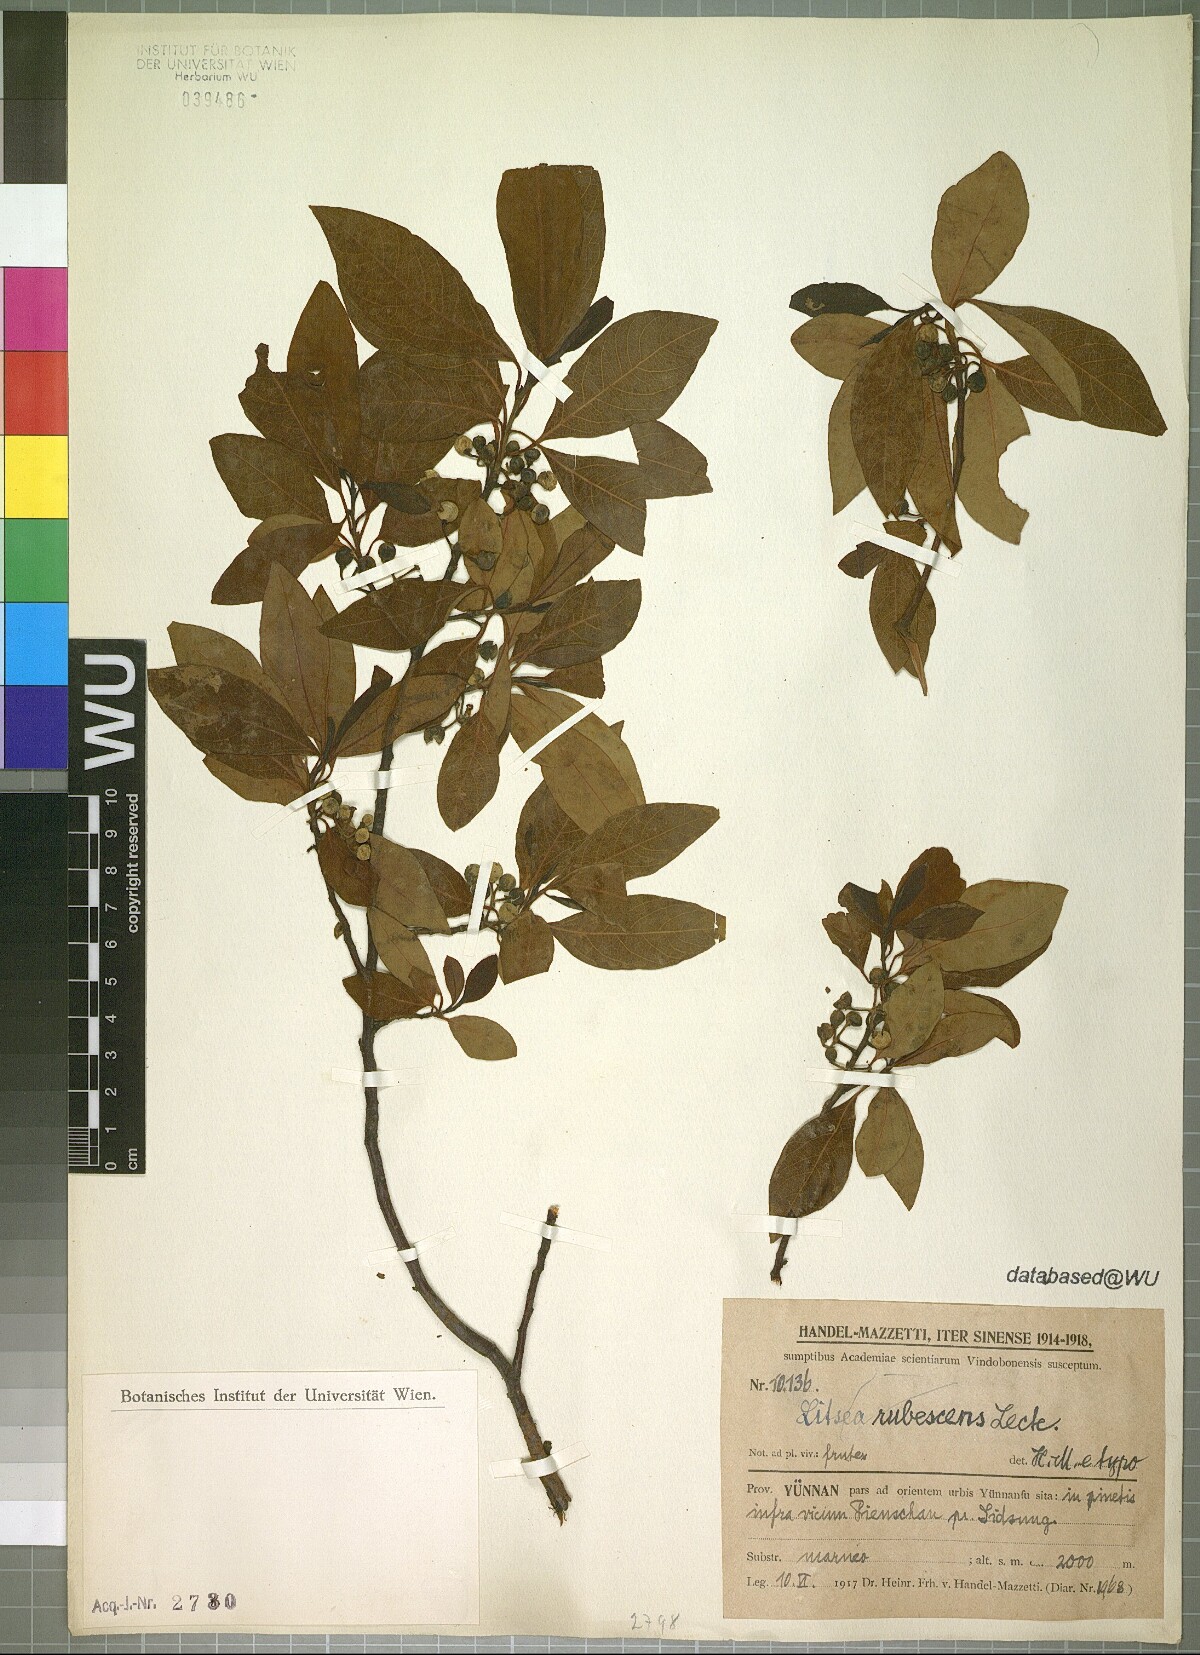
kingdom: Plantae
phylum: Tracheophyta
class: Magnoliopsida
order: Laurales
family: Lauraceae
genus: Litsea
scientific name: Litsea rubescens
